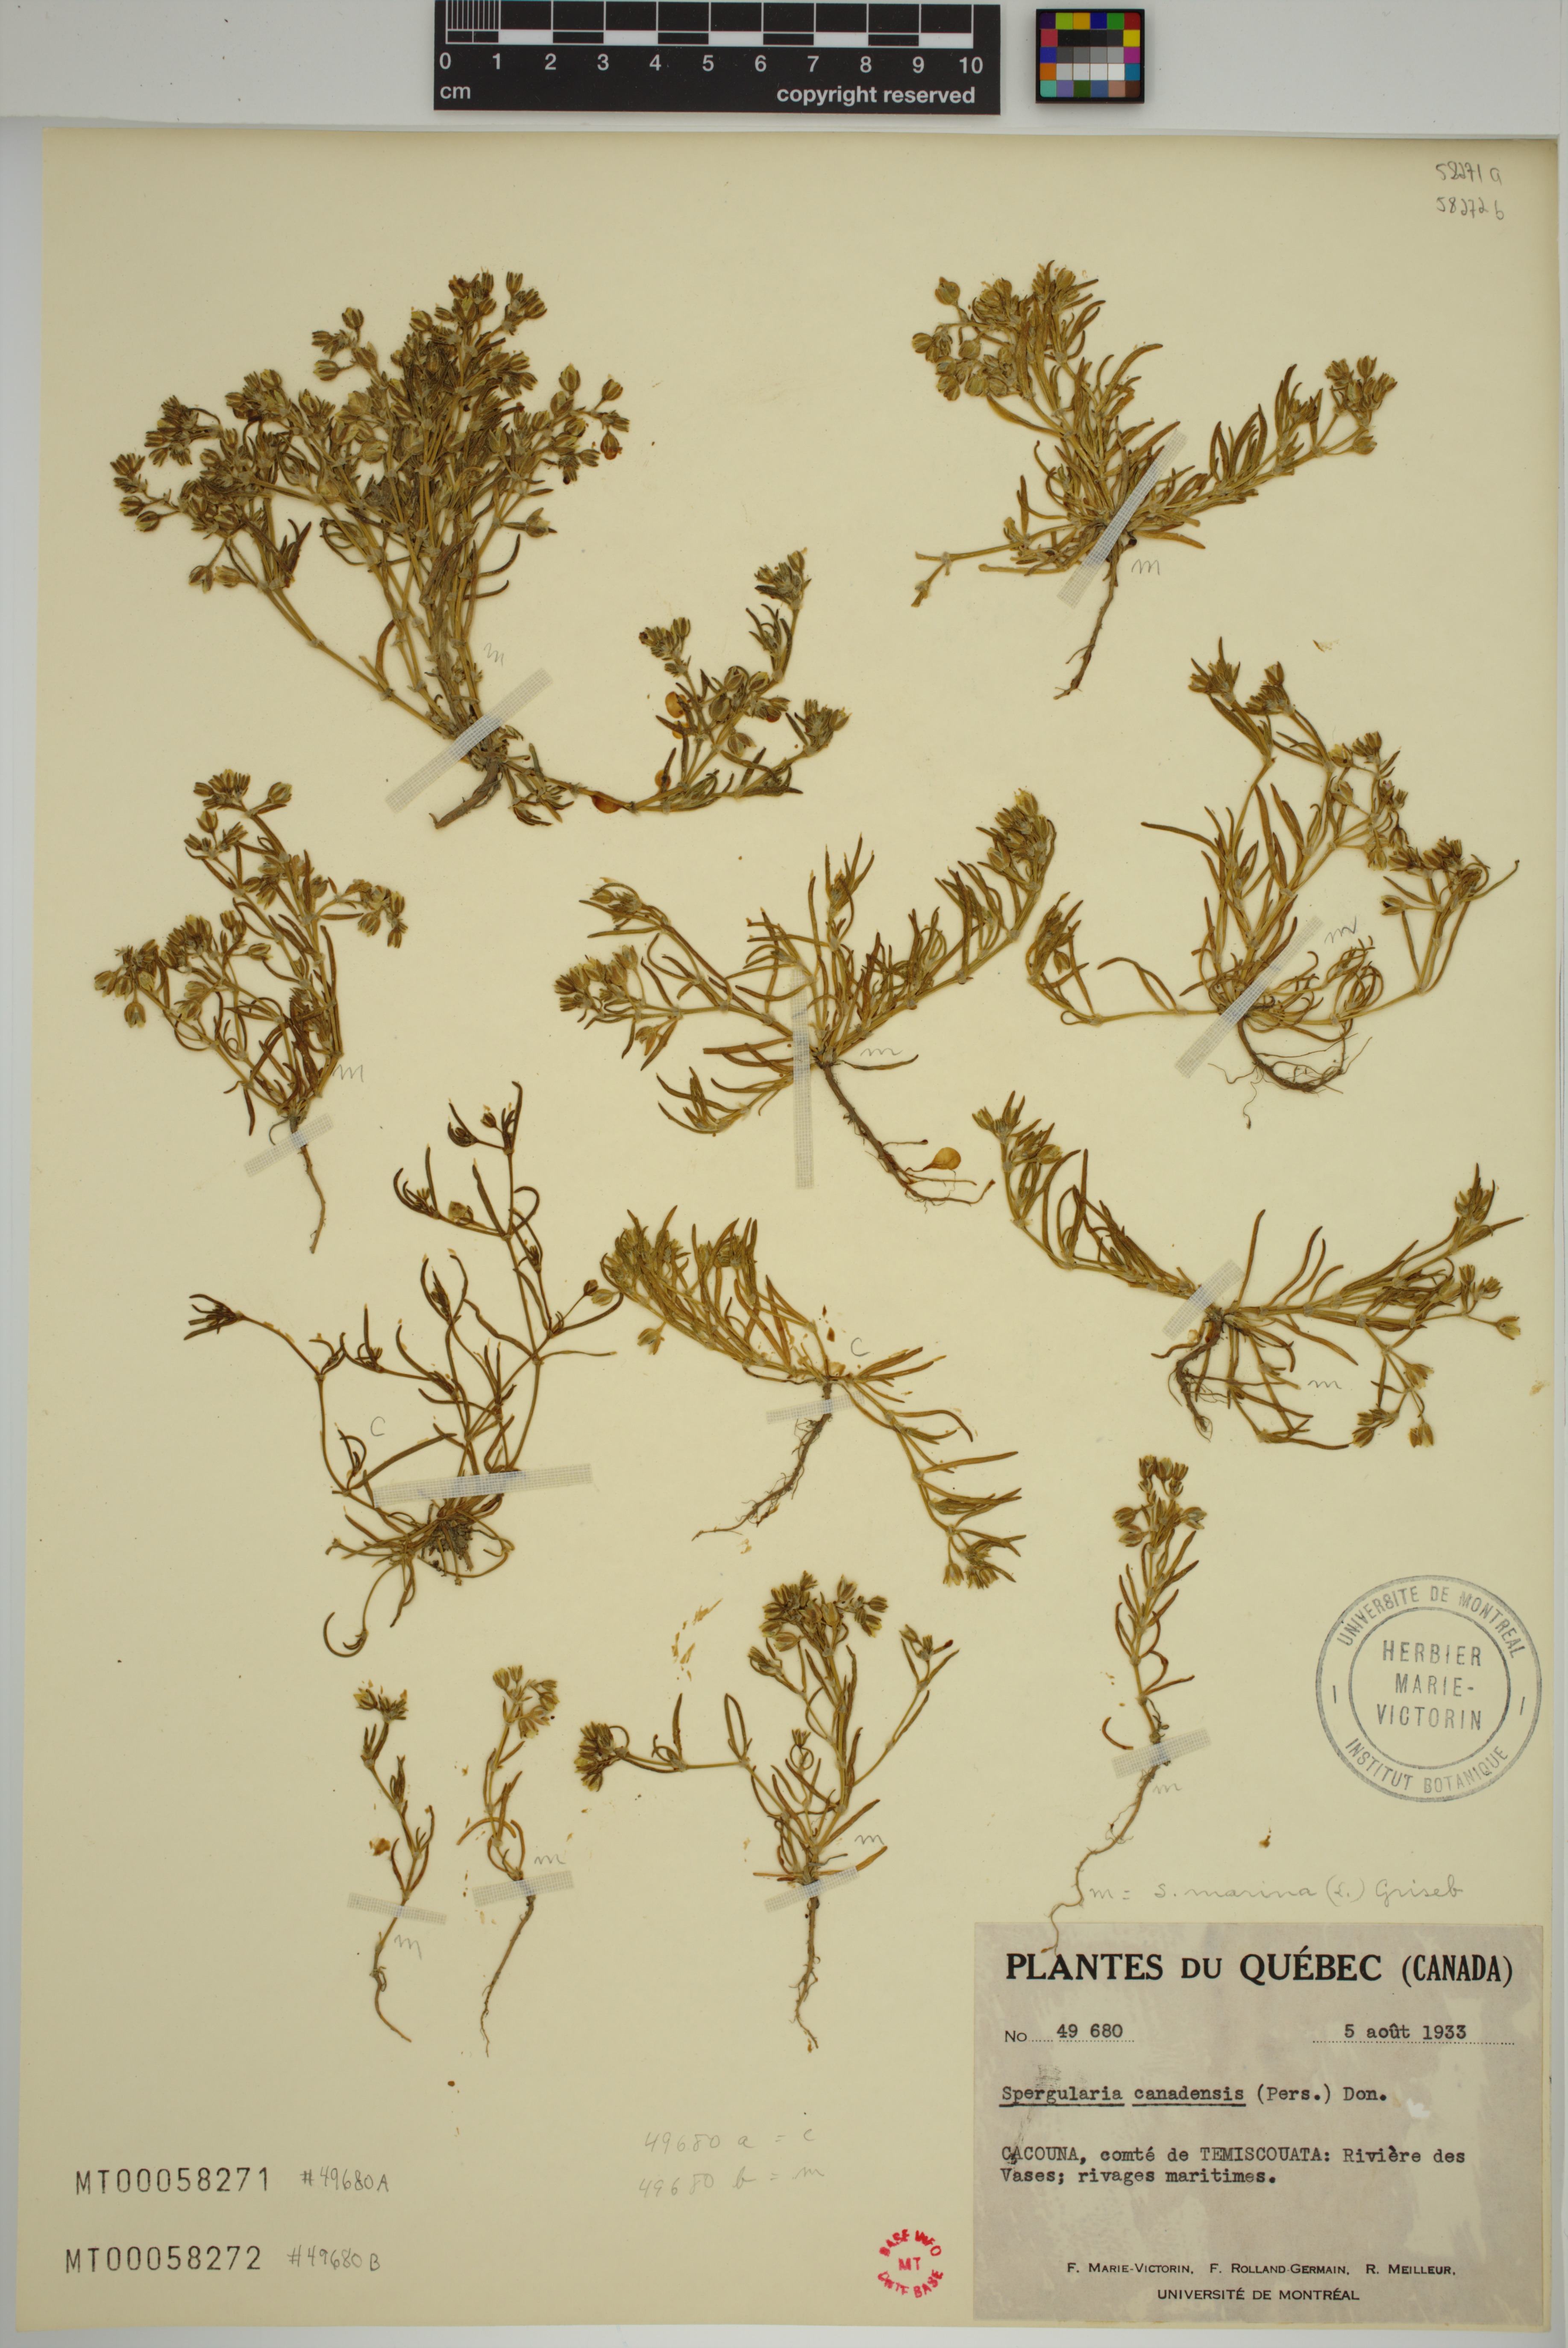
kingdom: Plantae
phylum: Tracheophyta
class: Magnoliopsida
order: Caryophyllales
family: Caryophyllaceae
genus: Spergularia
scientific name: Spergularia marina
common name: Lesser sea-spurrey
